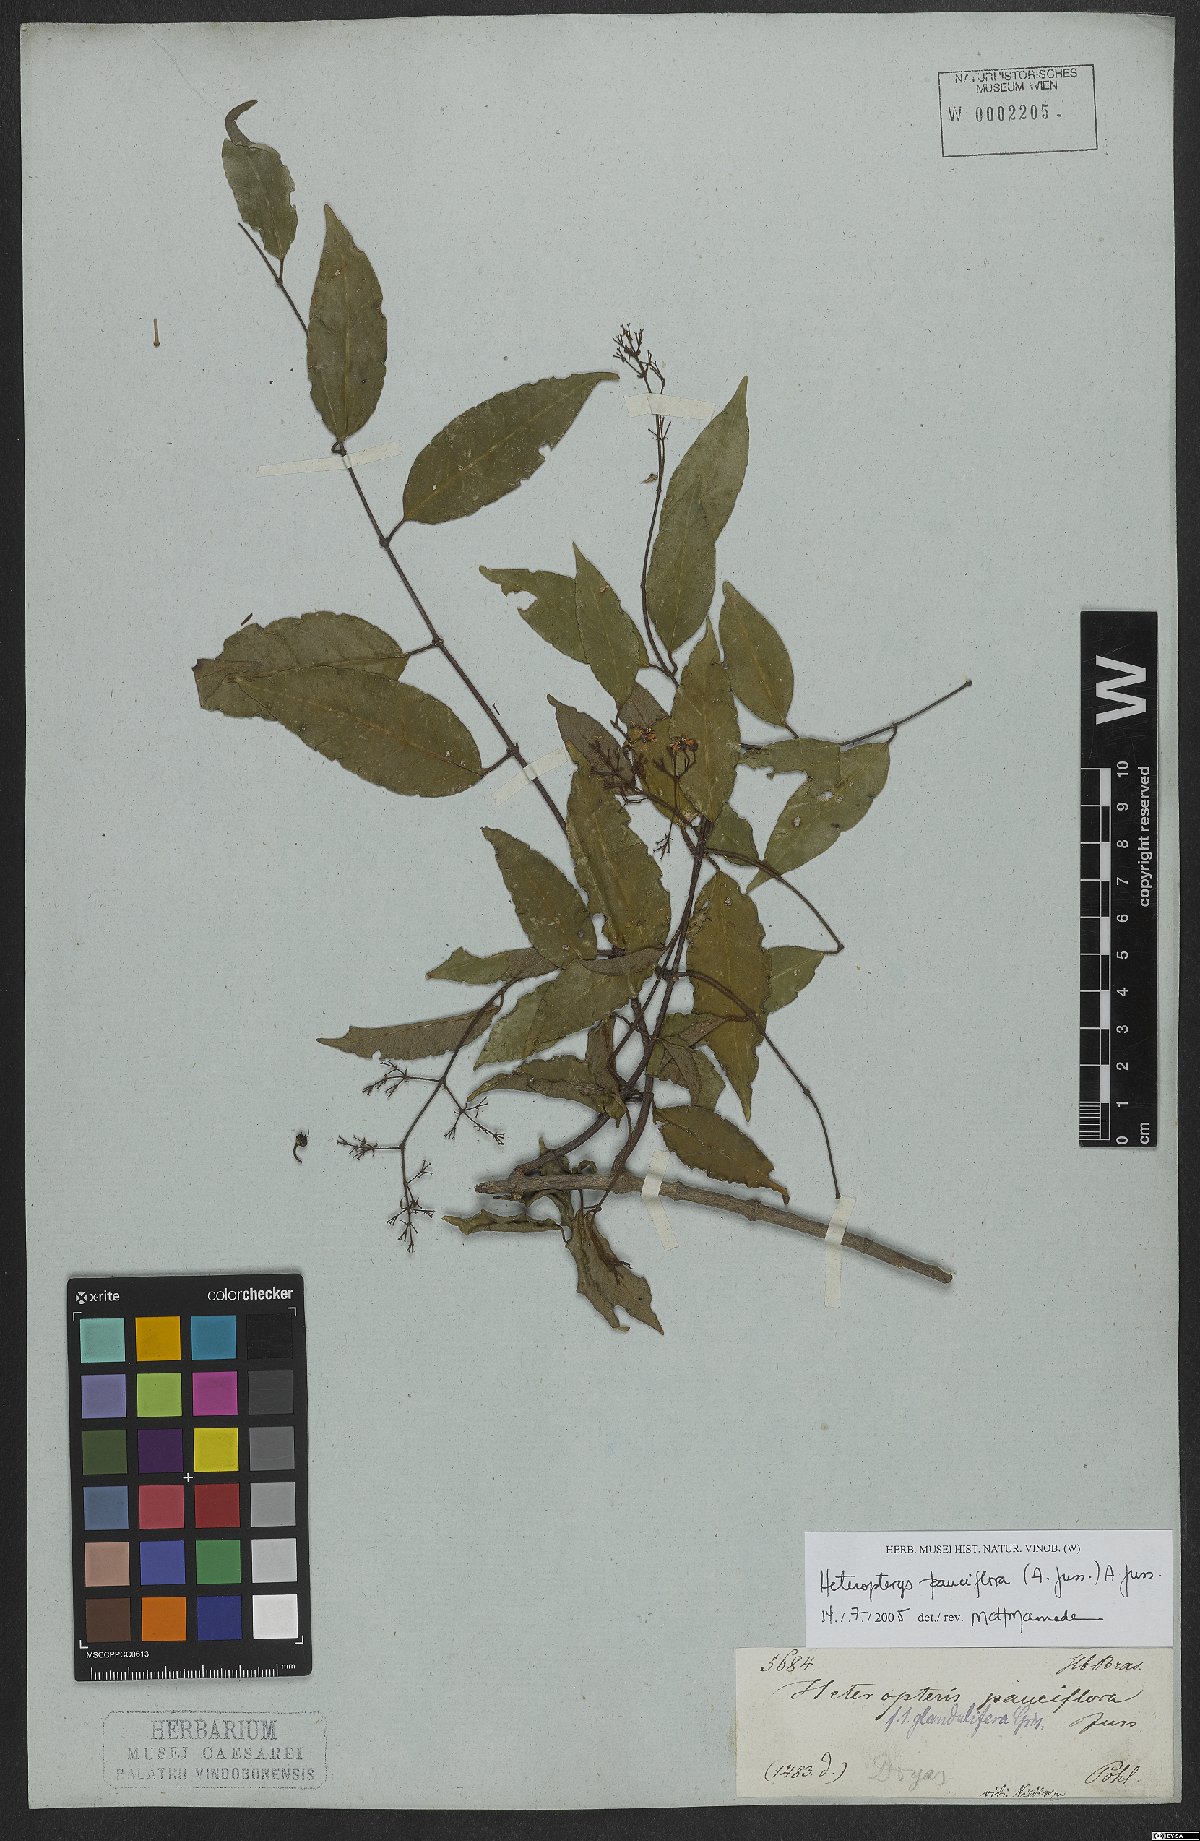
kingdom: Plantae
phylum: Tracheophyta
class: Magnoliopsida
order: Malpighiales
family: Malpighiaceae
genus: Heteropterys
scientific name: Heteropterys pauciflora
